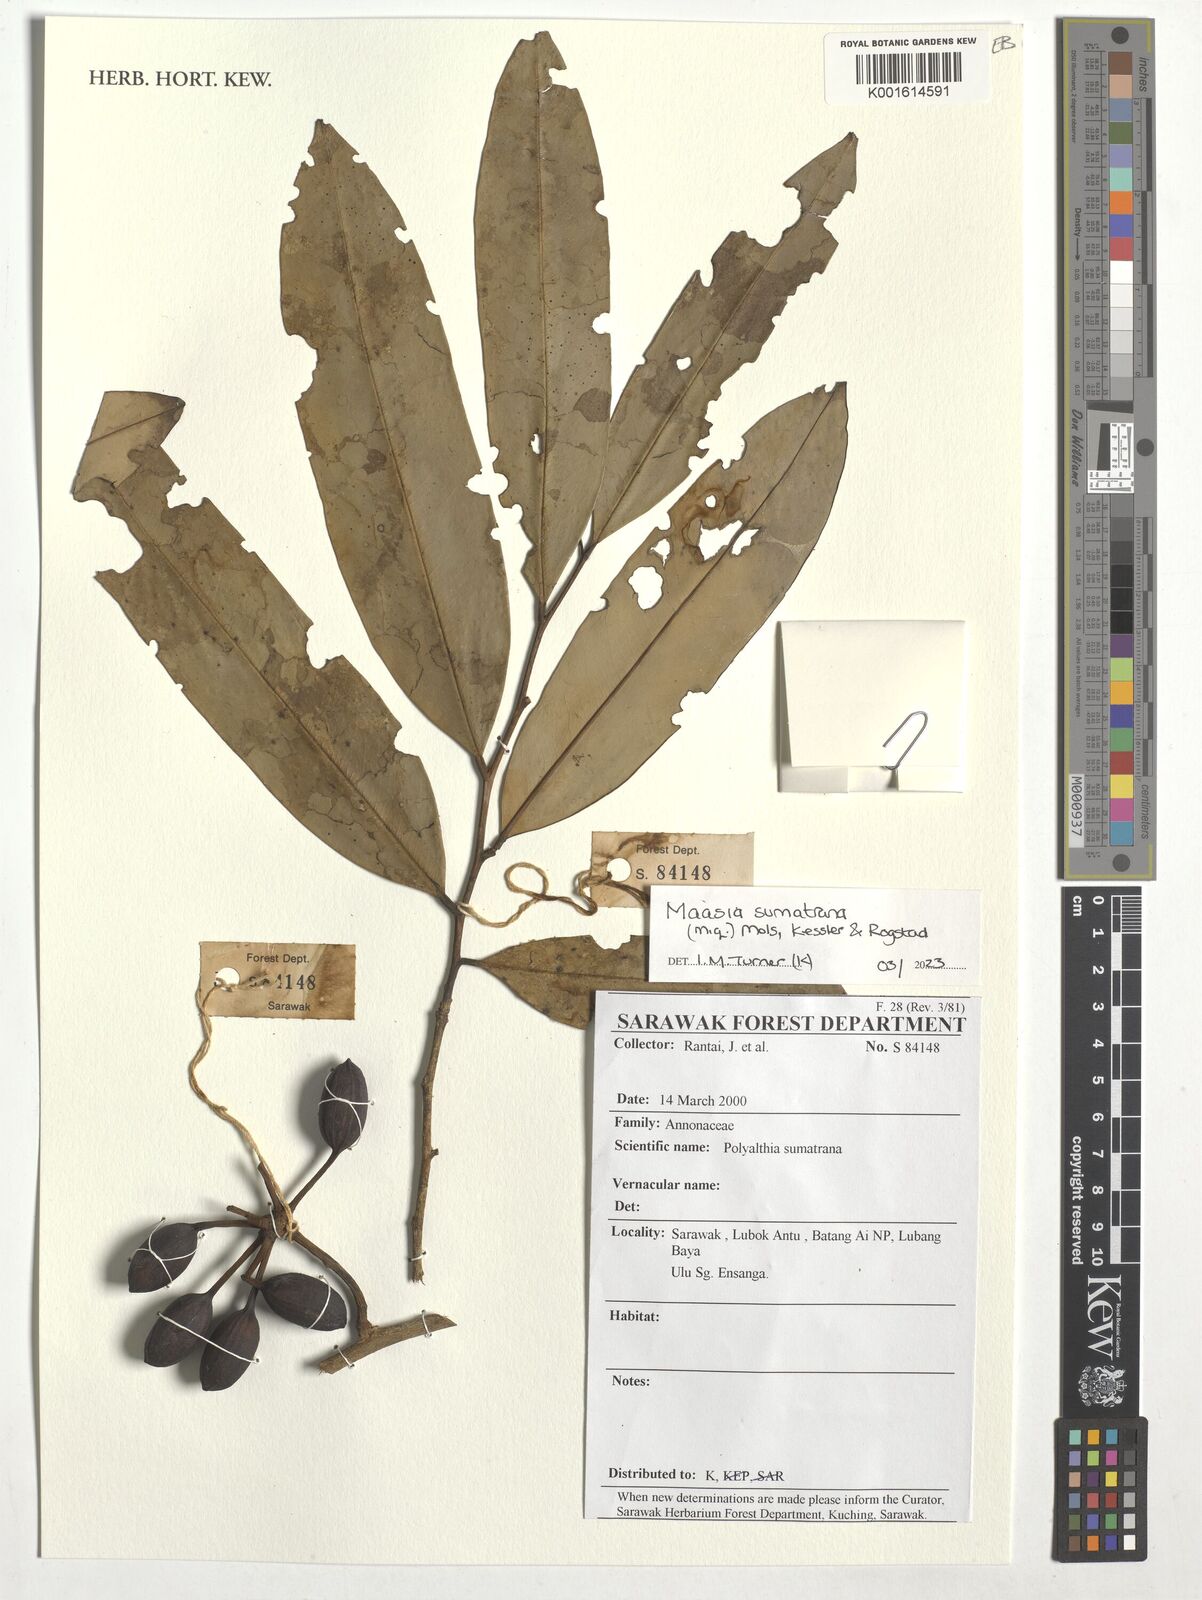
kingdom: Plantae
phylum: Tracheophyta
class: Magnoliopsida
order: Magnoliales
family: Annonaceae
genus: Maasia
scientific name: Maasia sumatrana
